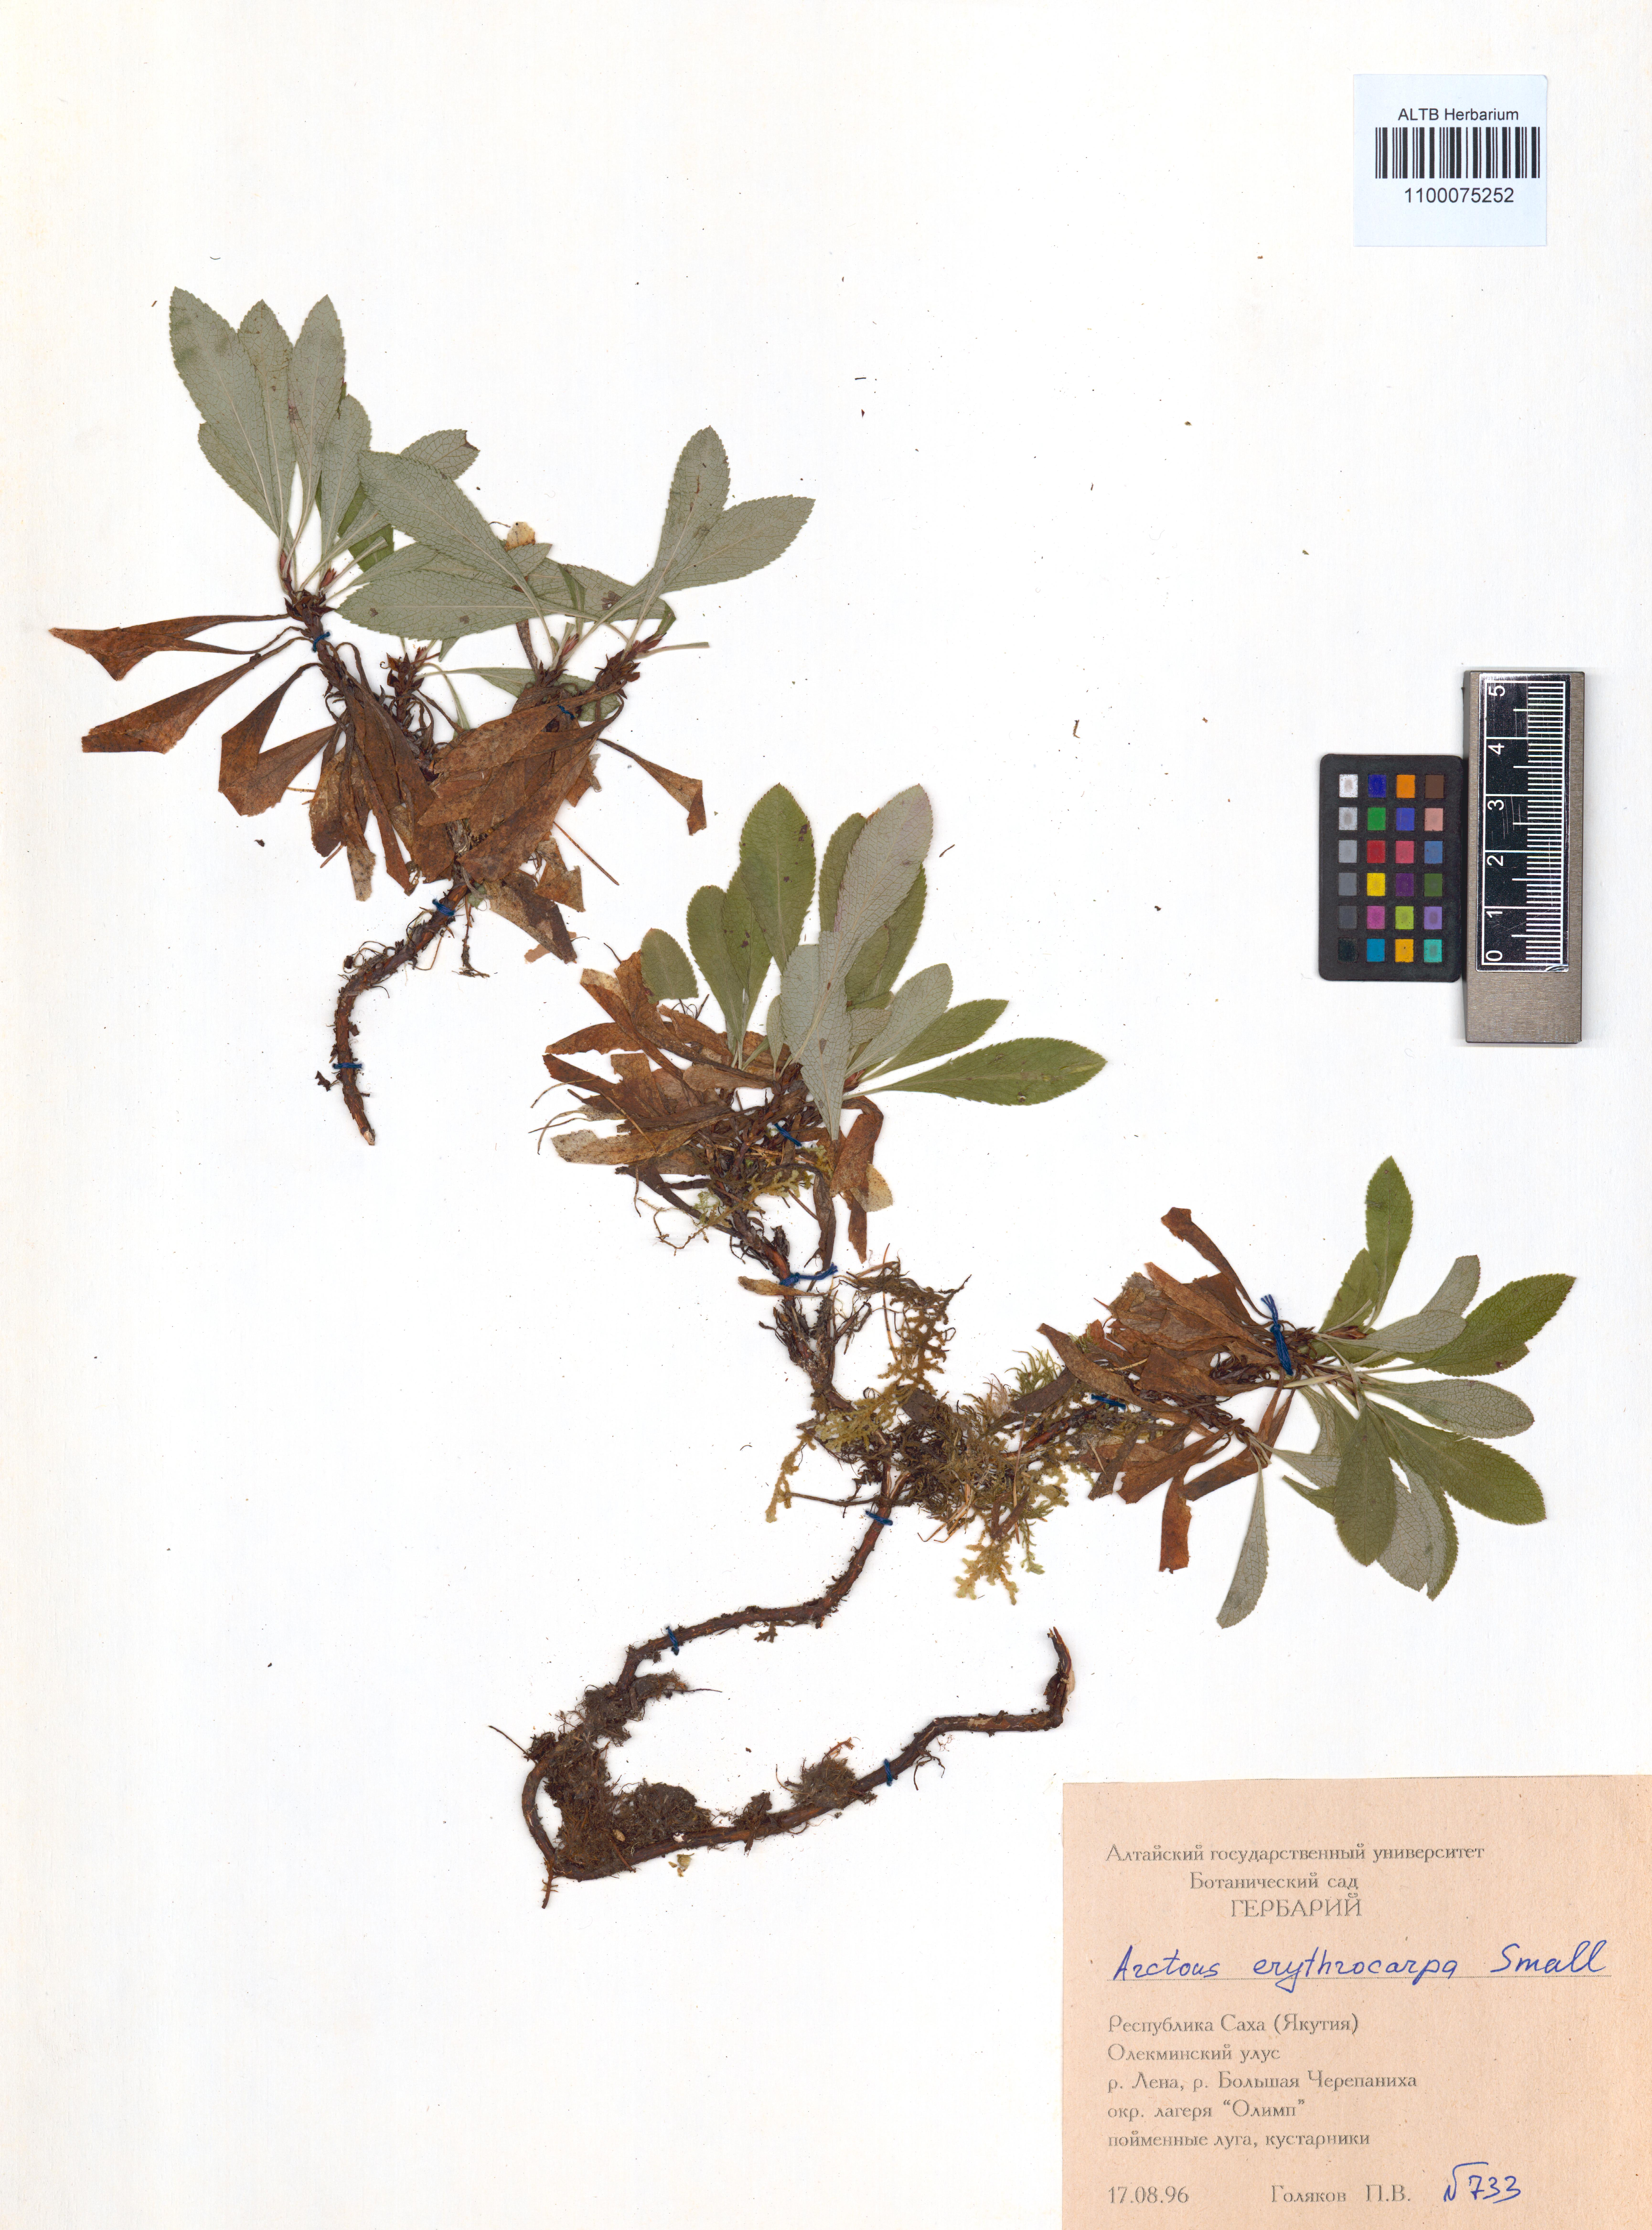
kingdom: Plantae
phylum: Tracheophyta
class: Magnoliopsida
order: Ericales
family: Ericaceae
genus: Arctostaphylos
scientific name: Arctostaphylos rubra
